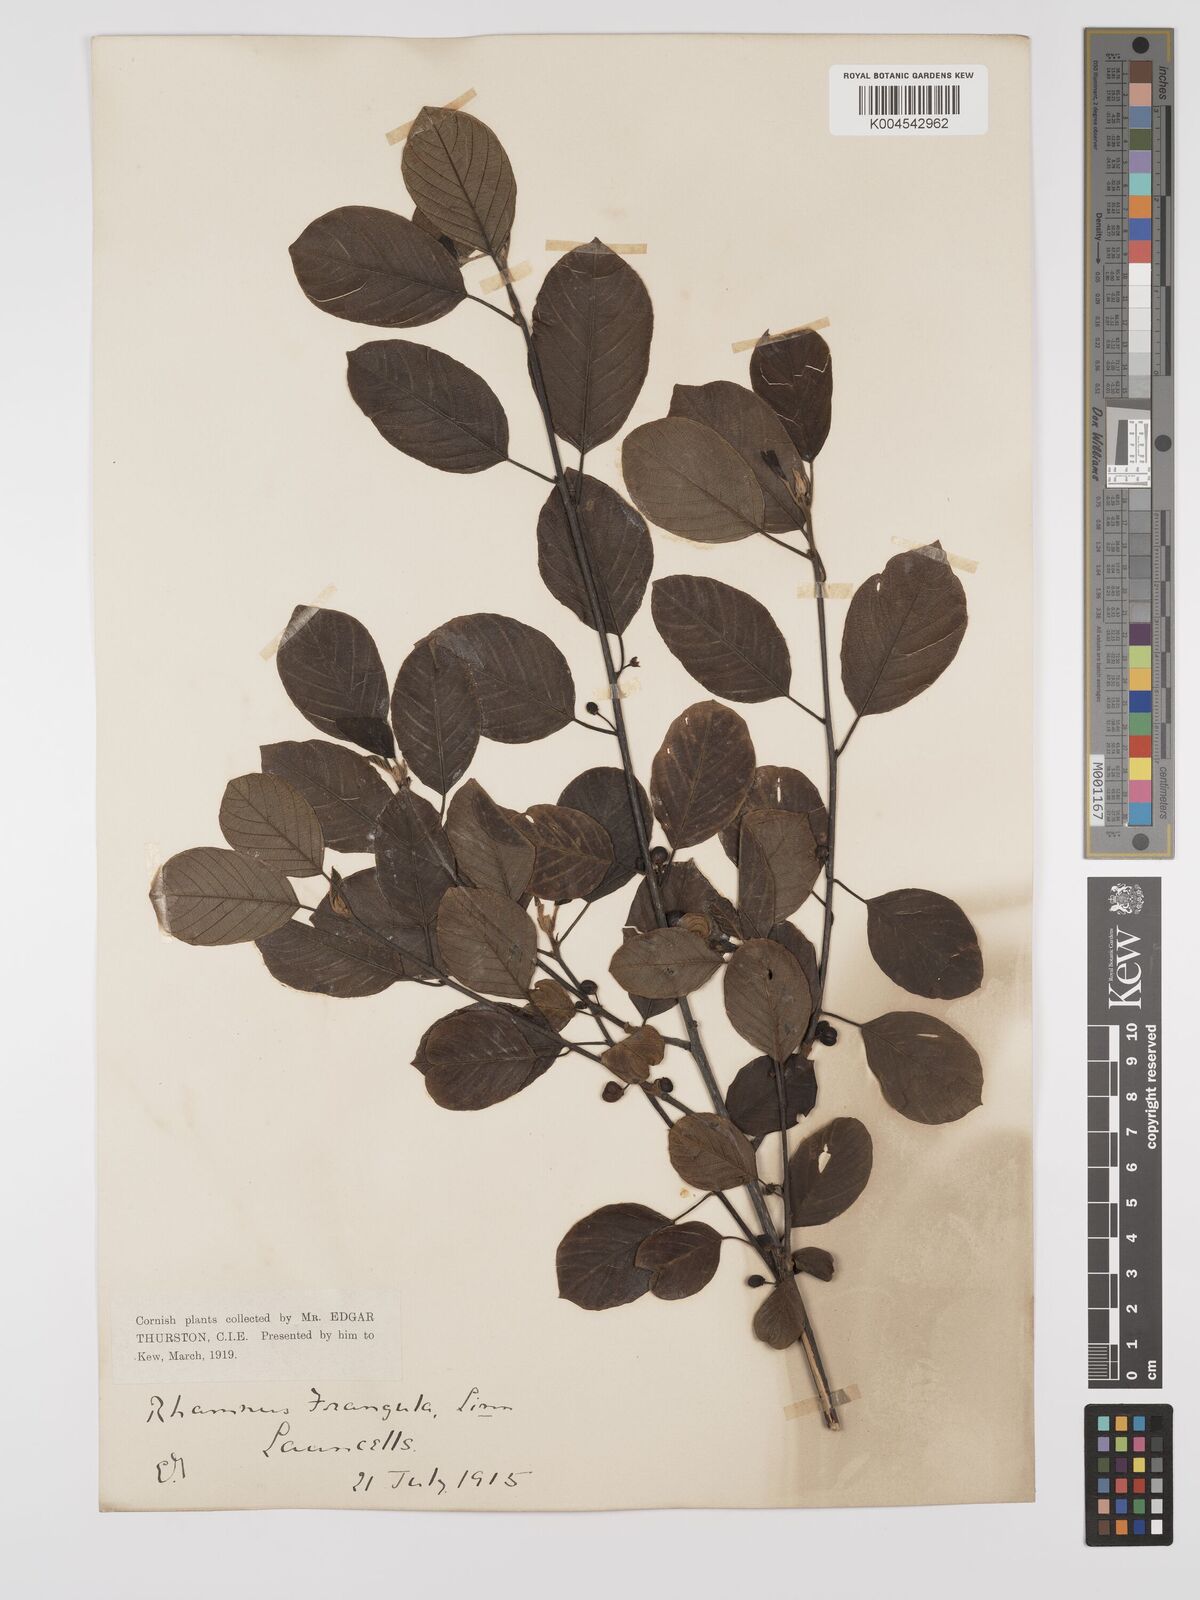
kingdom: Plantae
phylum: Tracheophyta
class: Magnoliopsida
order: Rosales
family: Rhamnaceae
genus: Frangula
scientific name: Frangula alnus
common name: Alder buckthorn
